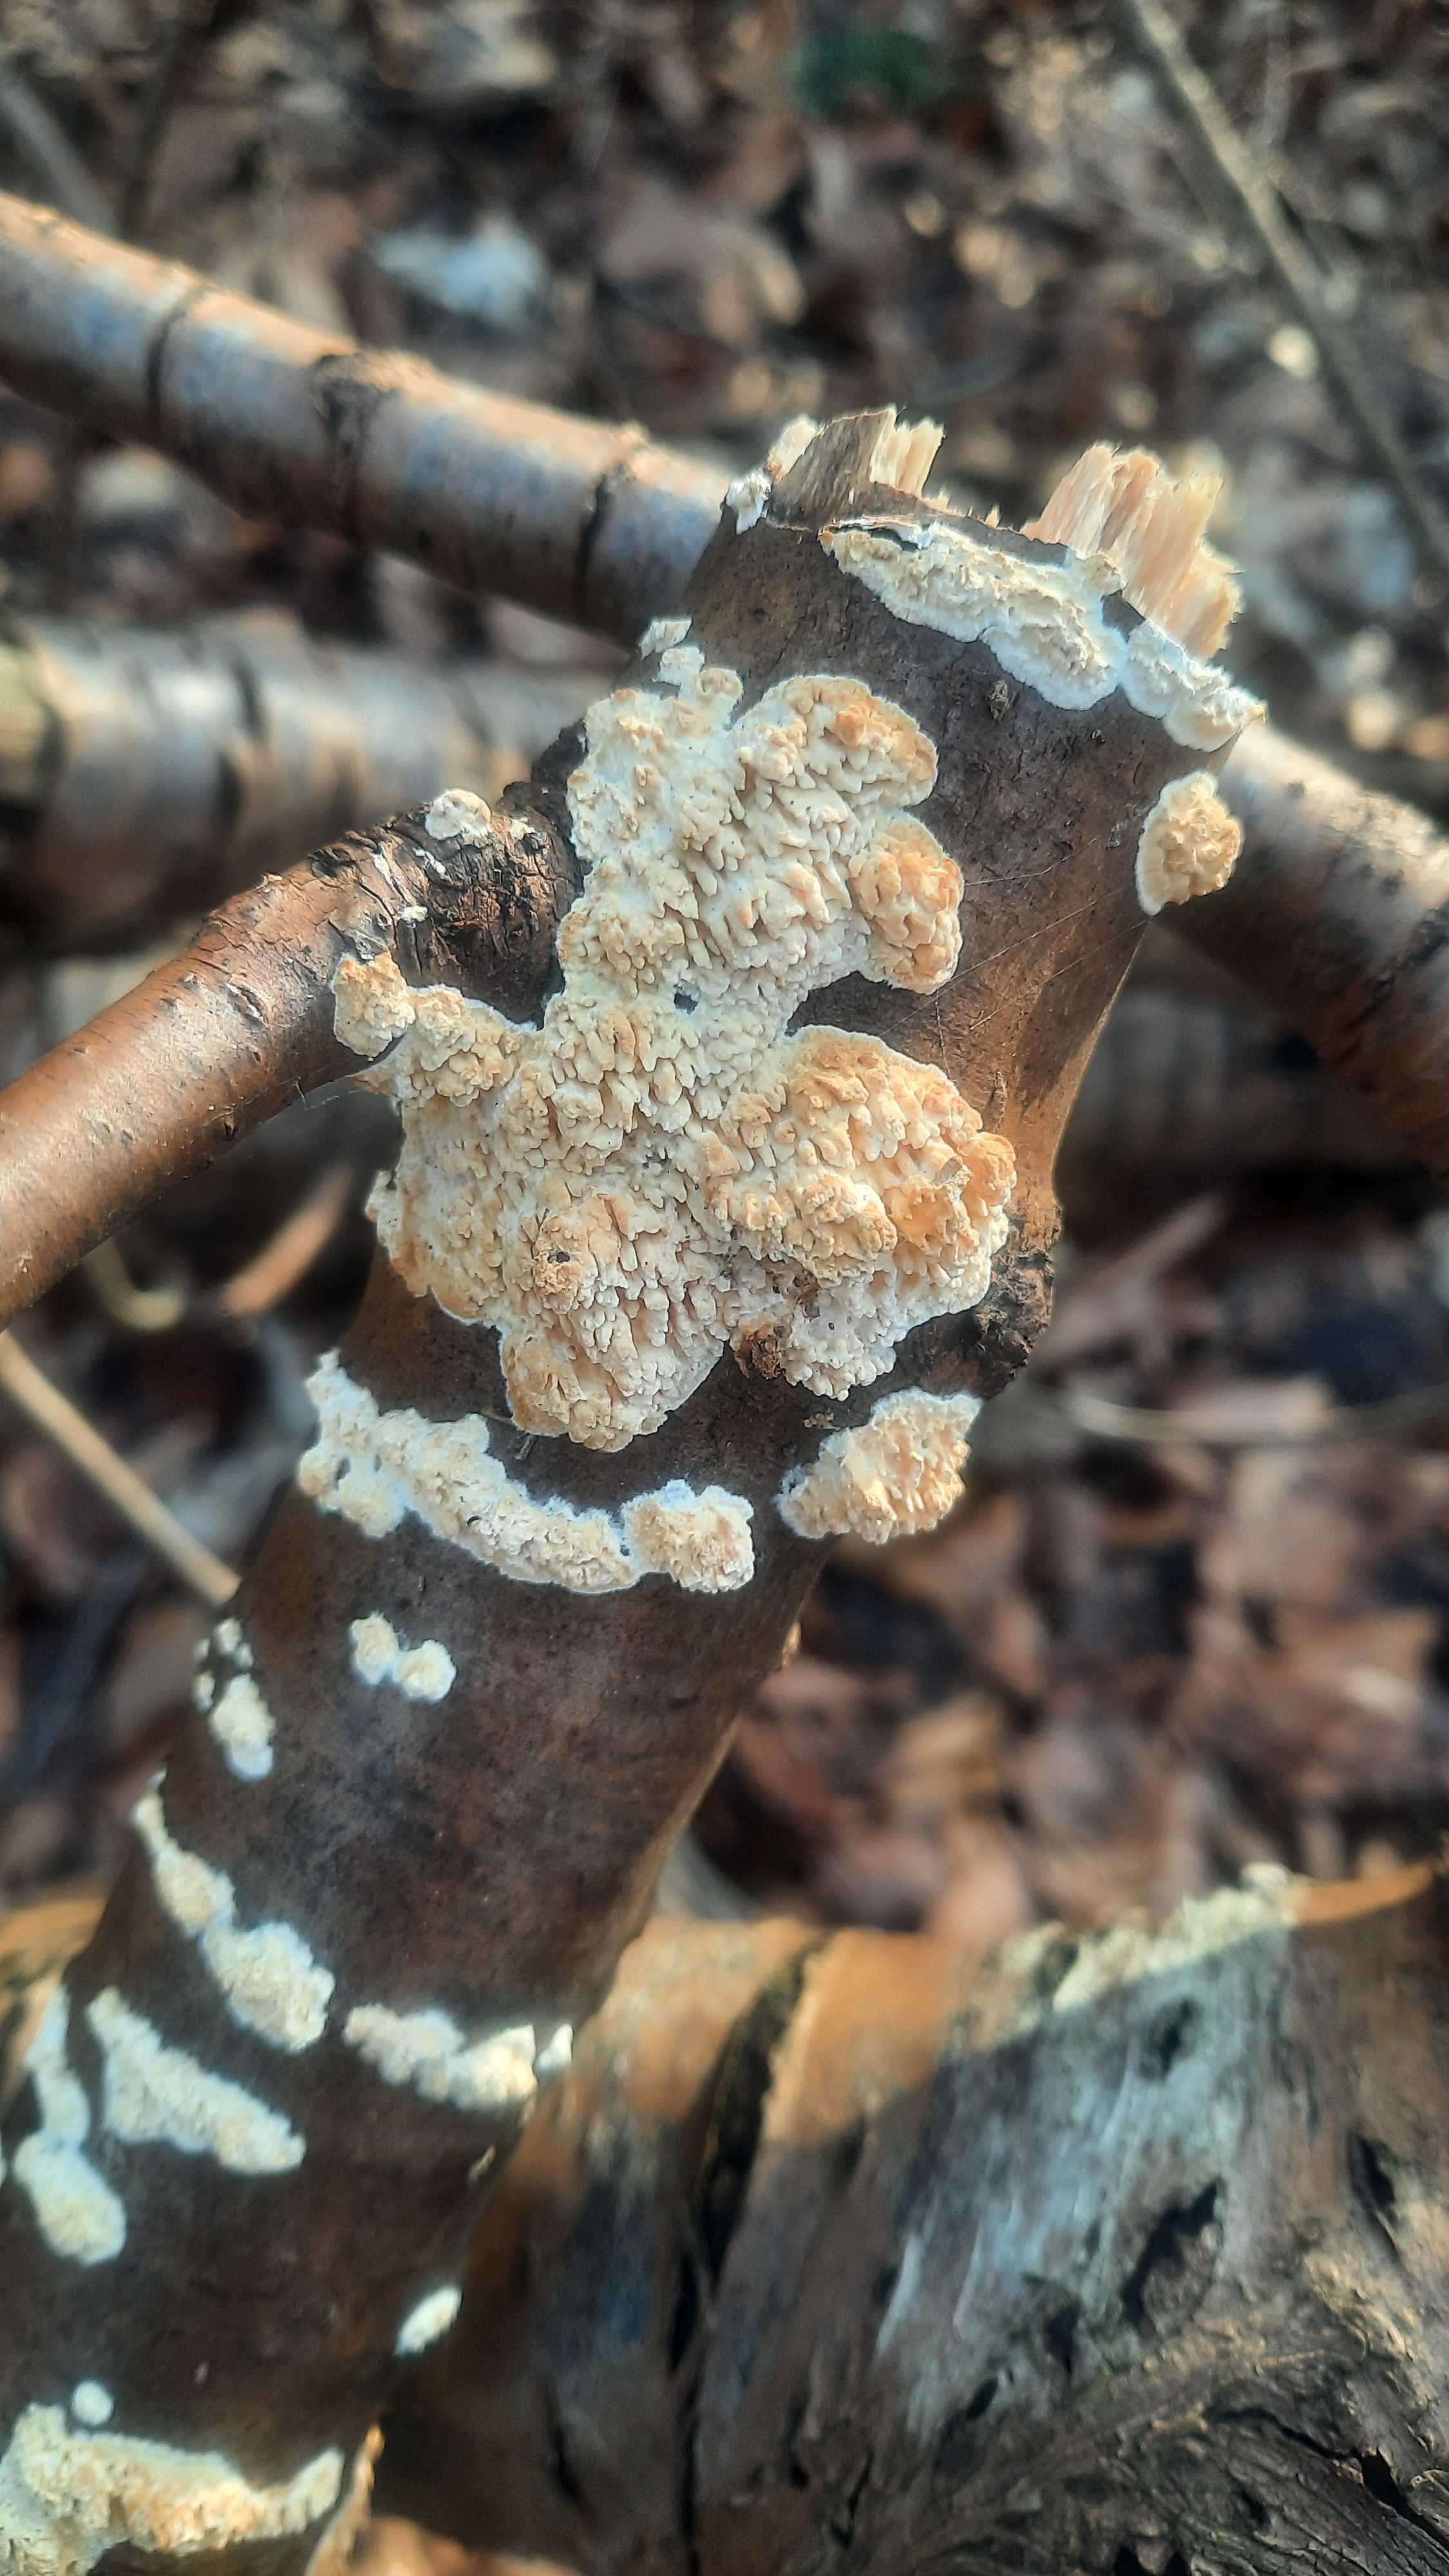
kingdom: Fungi
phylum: Basidiomycota
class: Agaricomycetes
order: Hymenochaetales
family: Schizoporaceae
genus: Xylodon
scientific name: Xylodon radula
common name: grovtandet kalkskind
